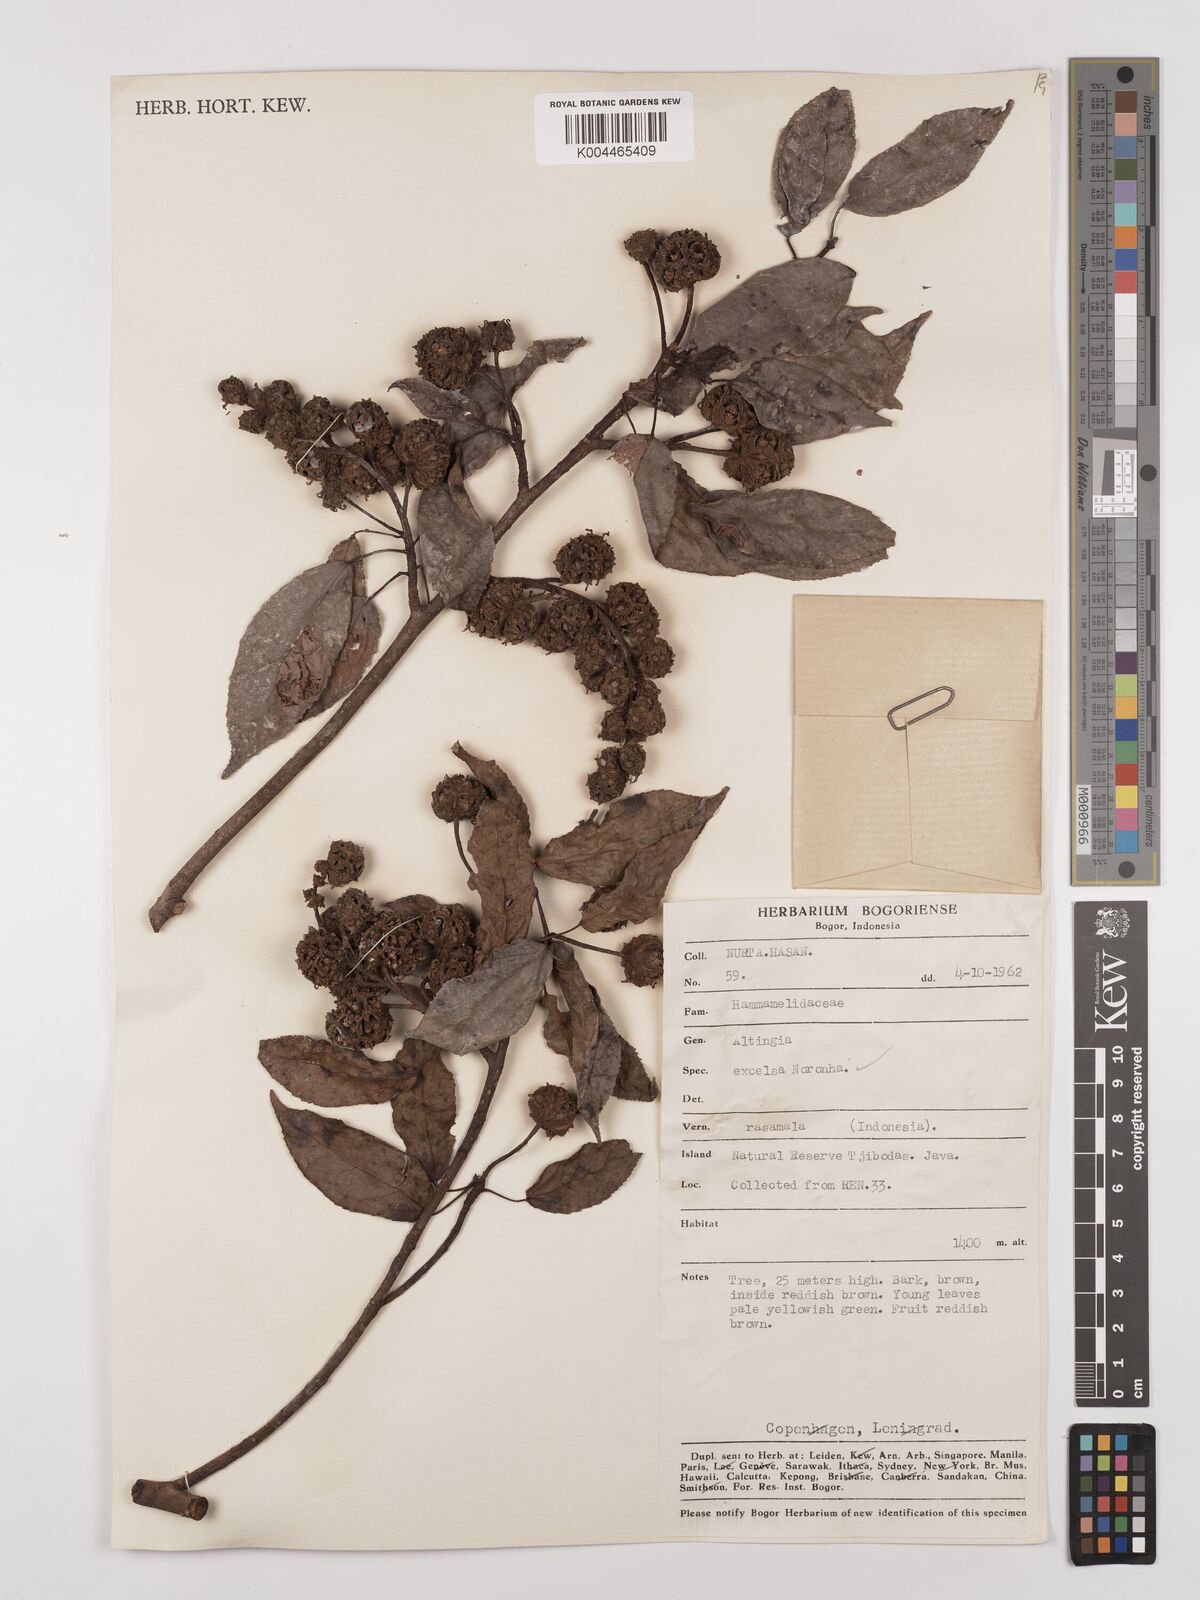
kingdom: Plantae
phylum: Tracheophyta
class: Magnoliopsida
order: Saxifragales
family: Altingiaceae
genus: Liquidambar
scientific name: Liquidambar excelsa
